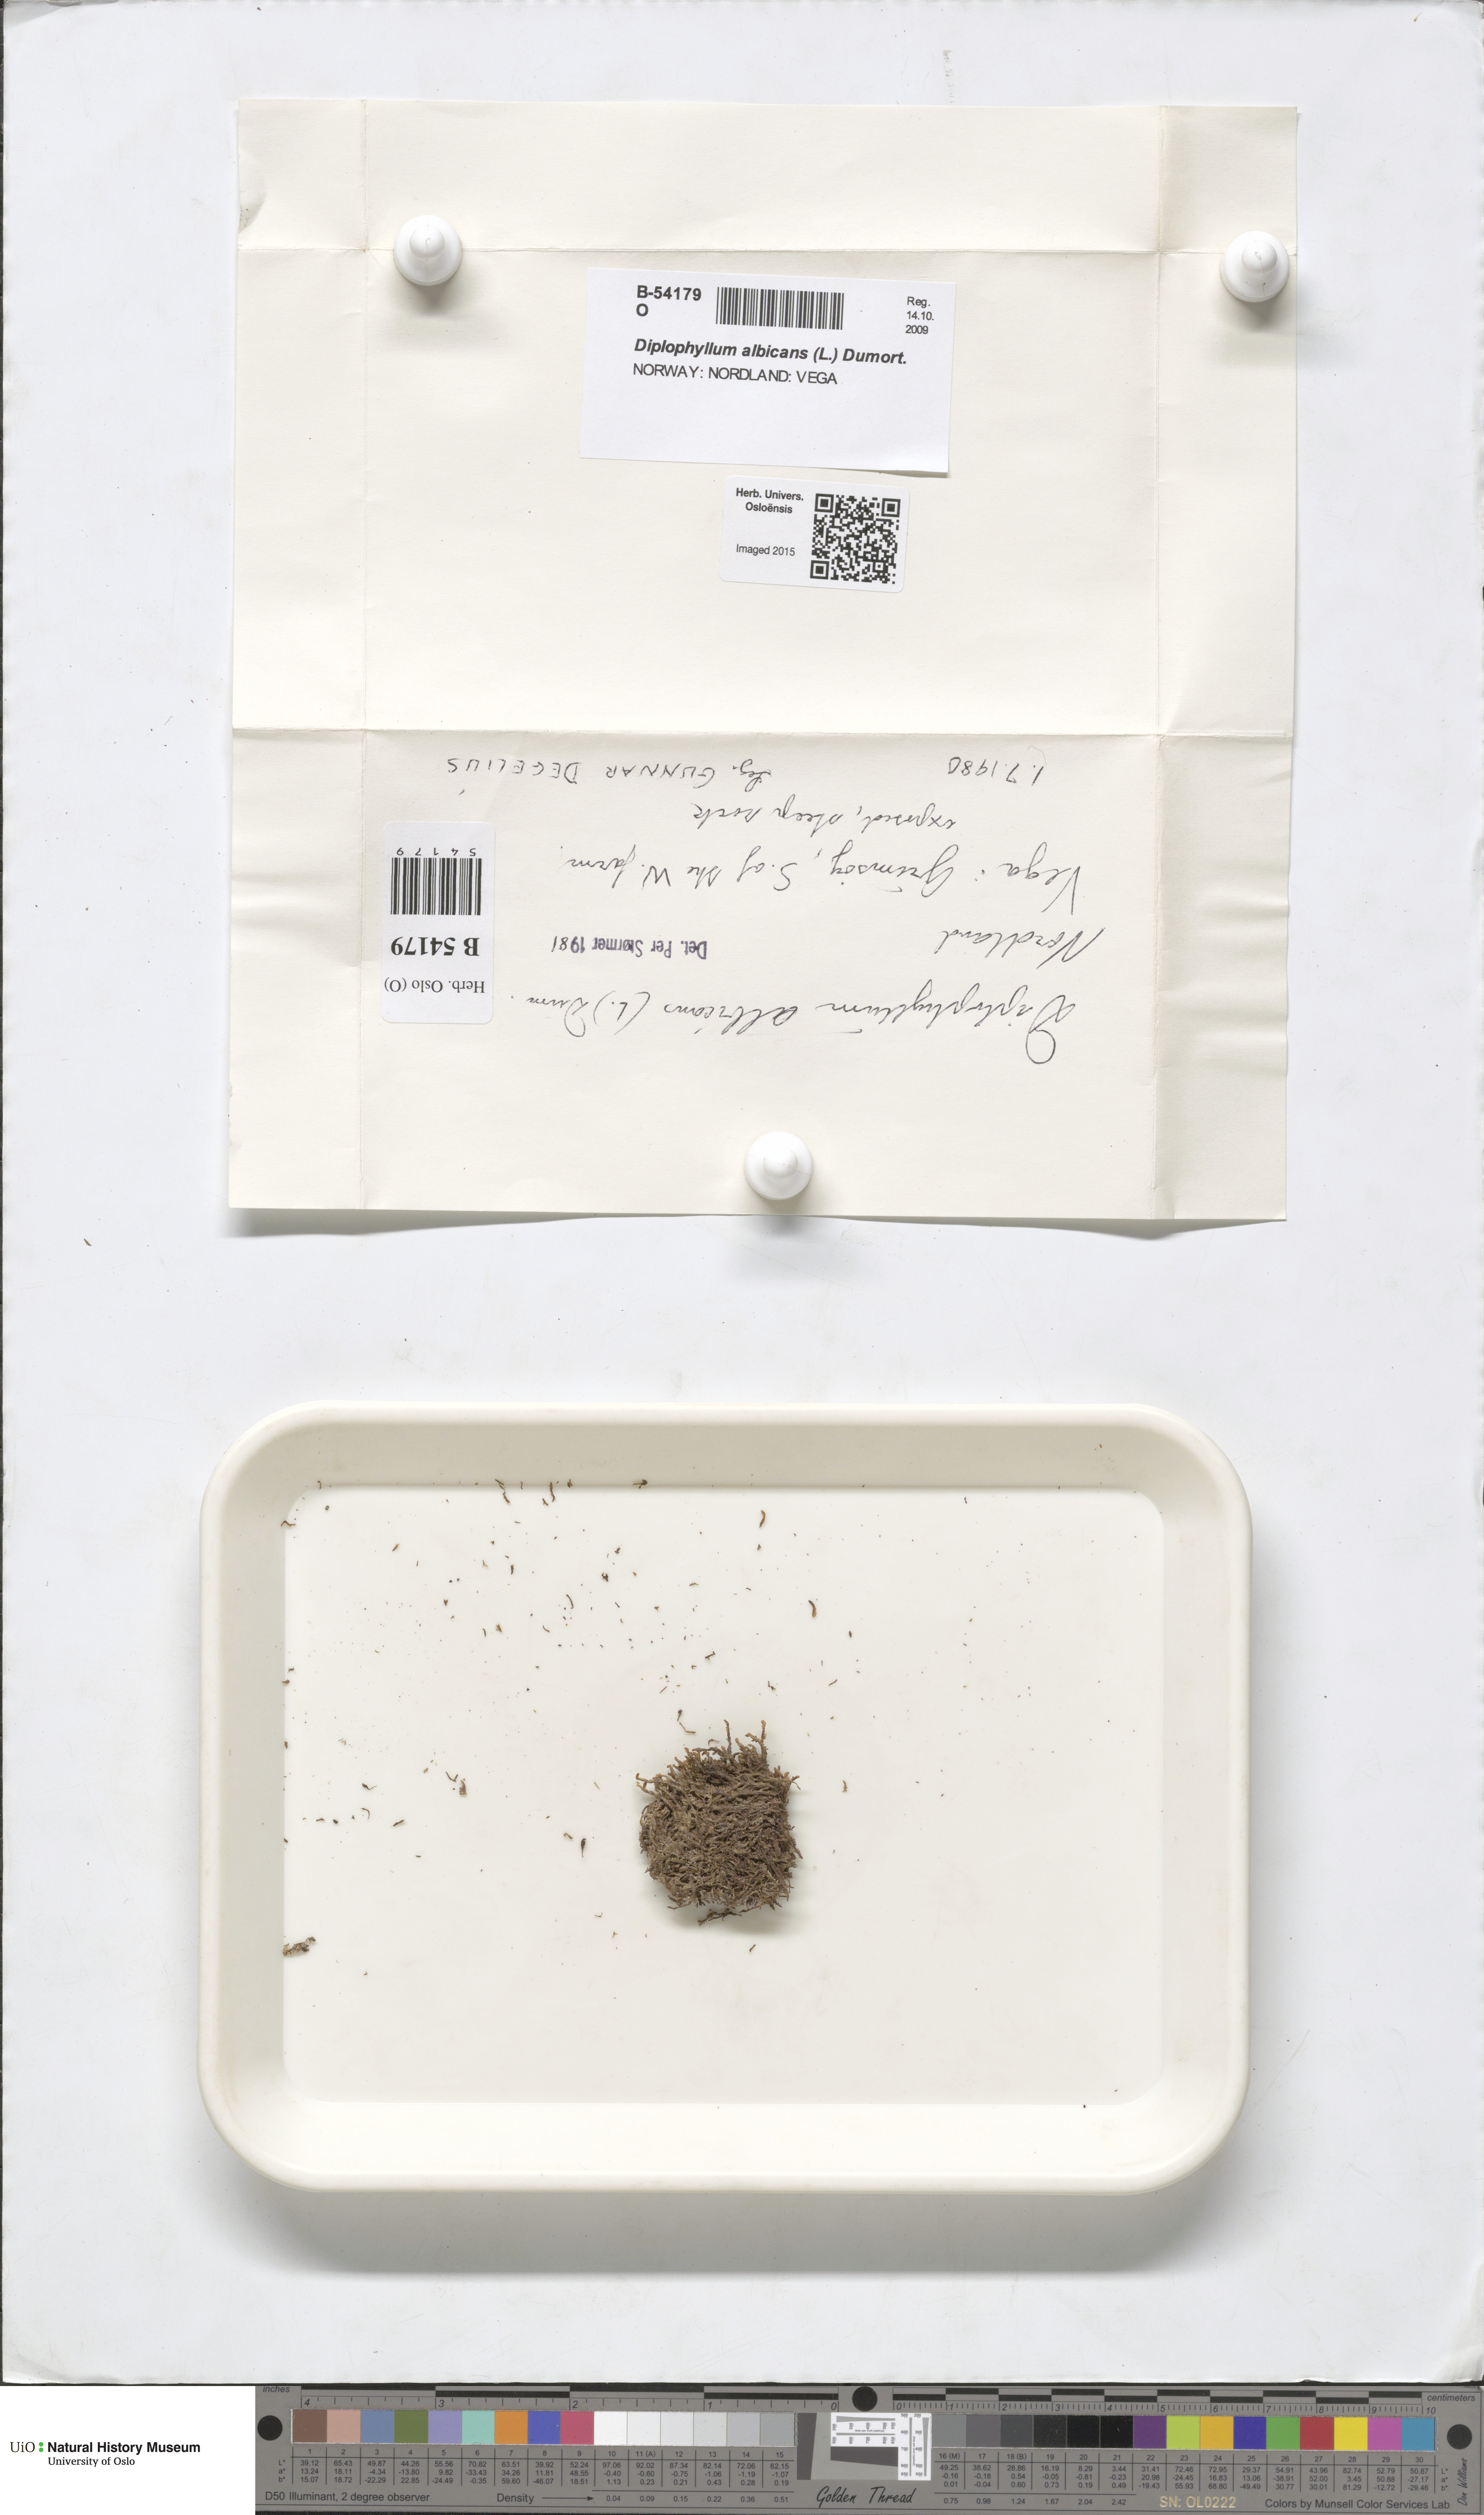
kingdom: Plantae
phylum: Marchantiophyta
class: Jungermanniopsida
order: Jungermanniales
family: Scapaniaceae
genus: Diplophyllum
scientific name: Diplophyllum albicans
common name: White earwort
